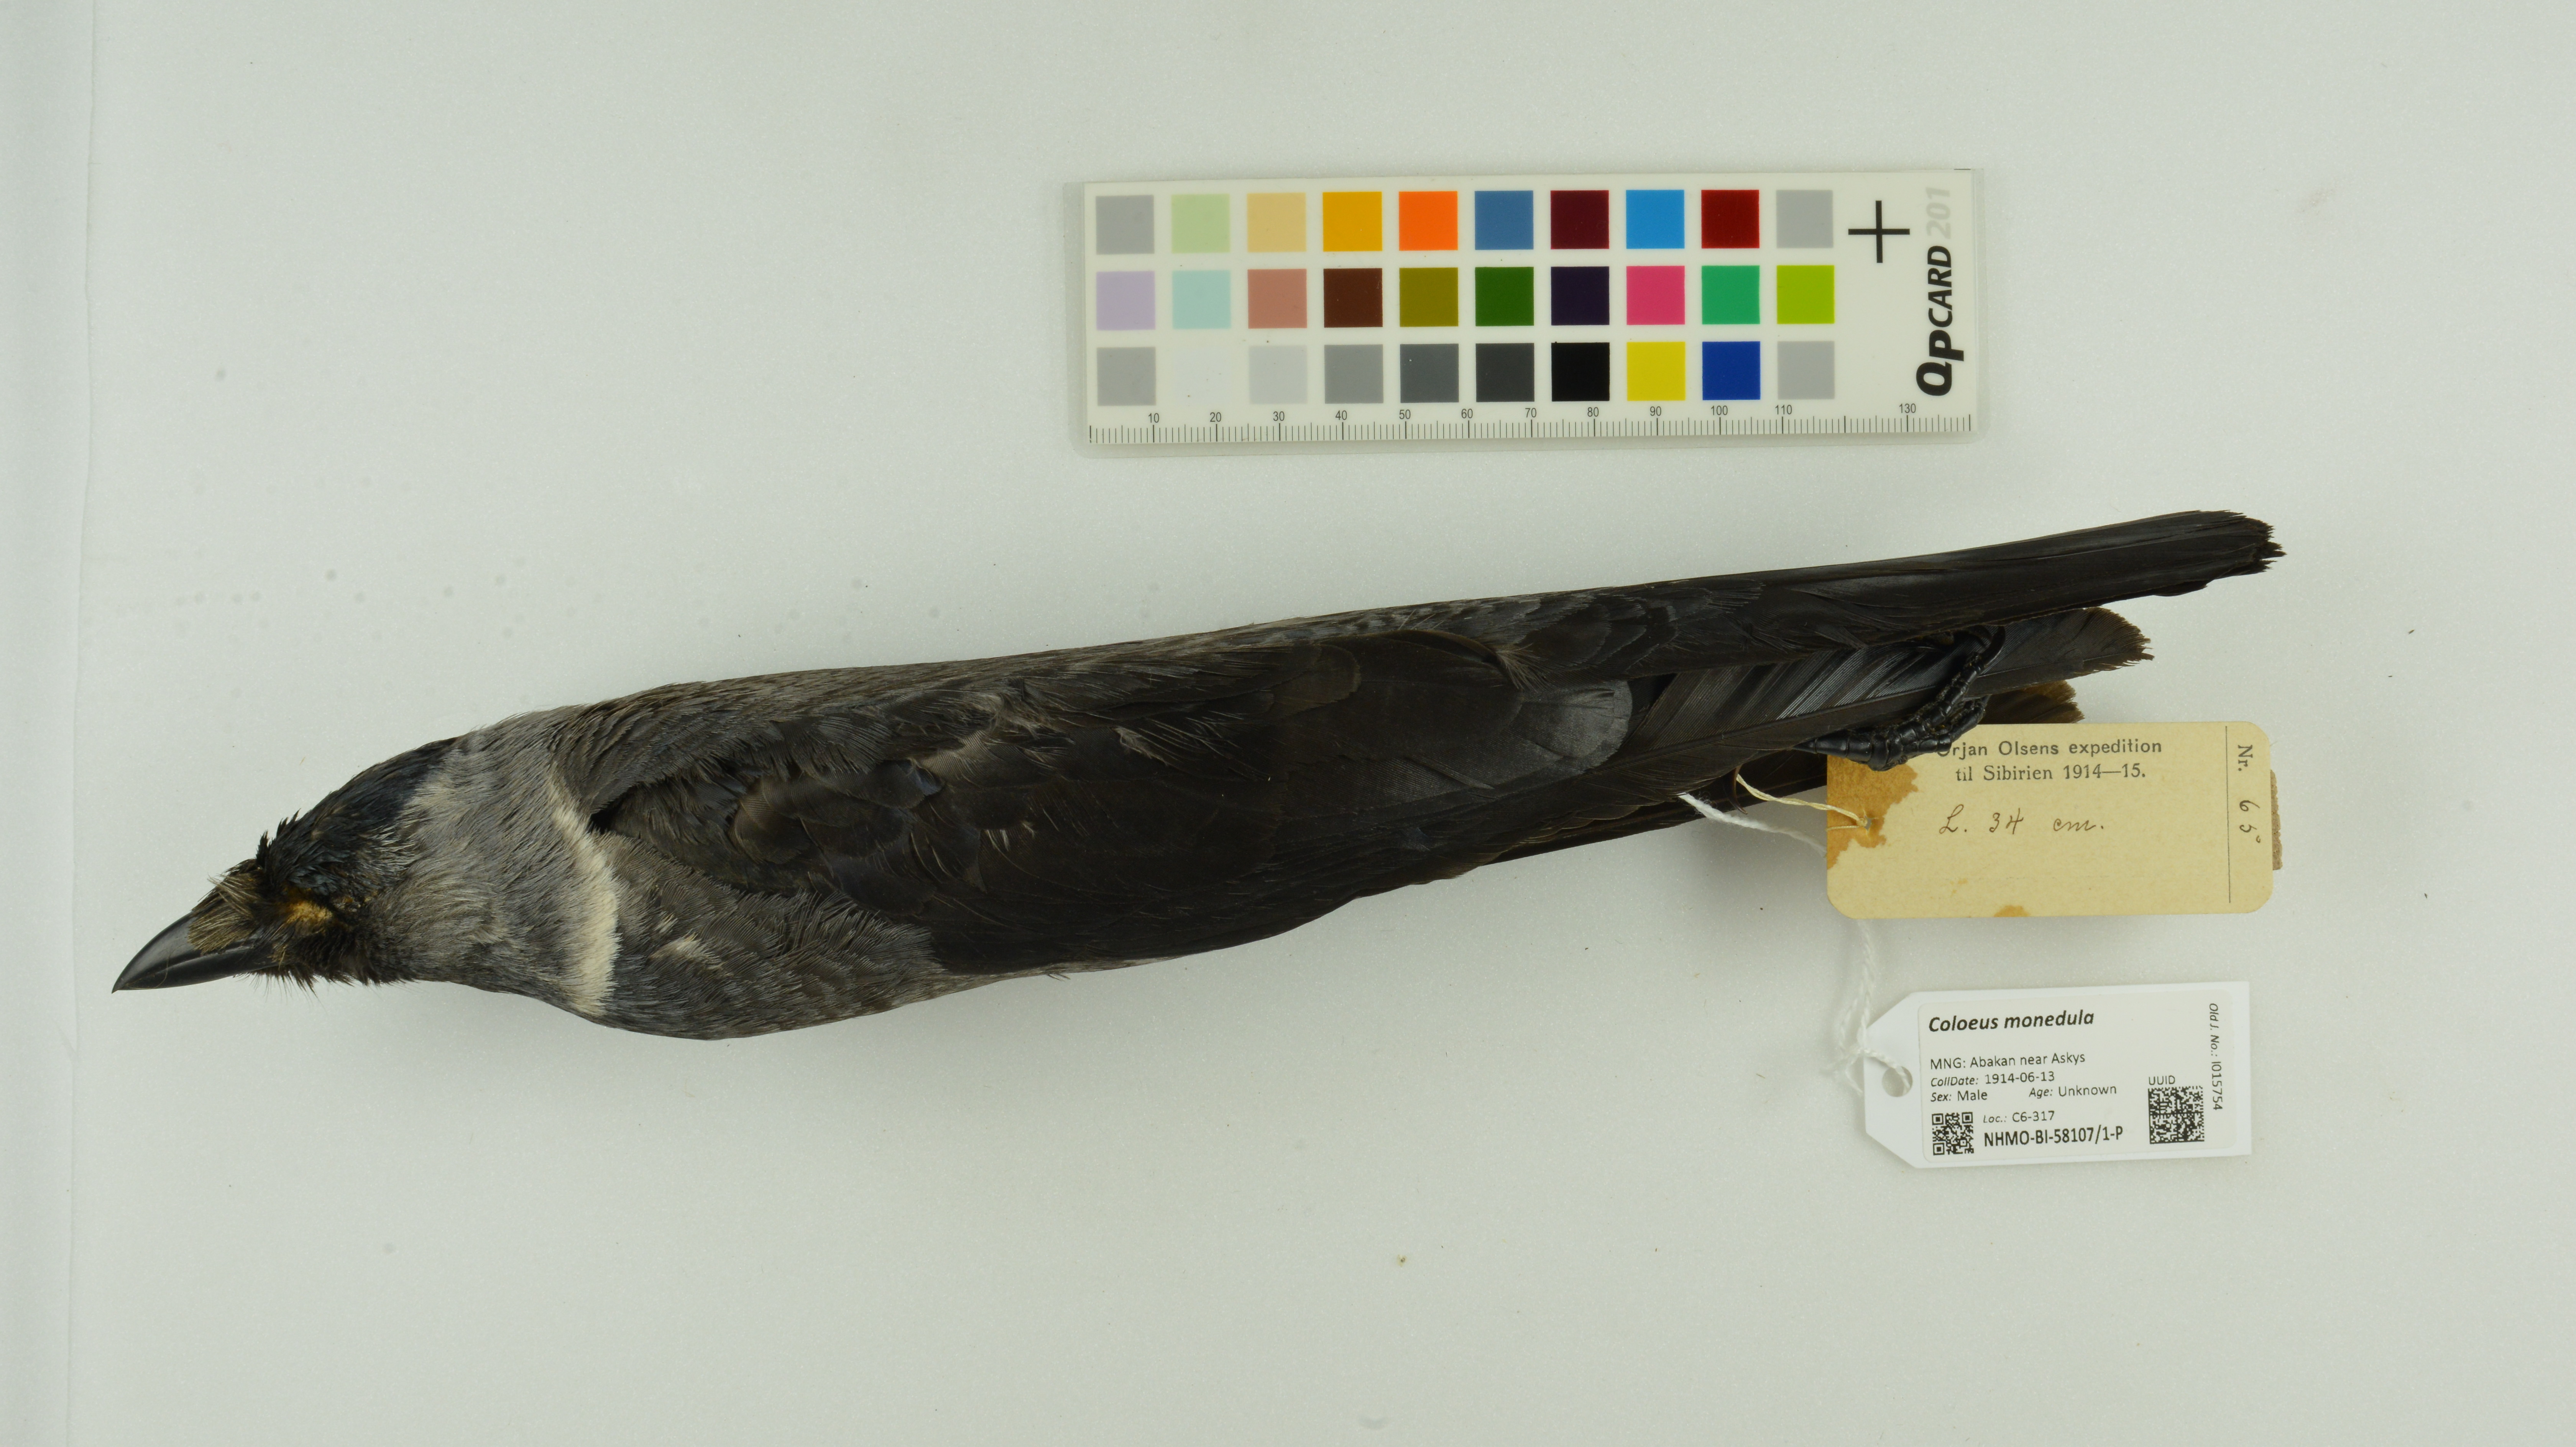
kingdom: Animalia
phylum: Chordata
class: Aves
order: Passeriformes
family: Corvidae
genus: Coloeus
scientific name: Coloeus monedula
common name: Western jackdaw
